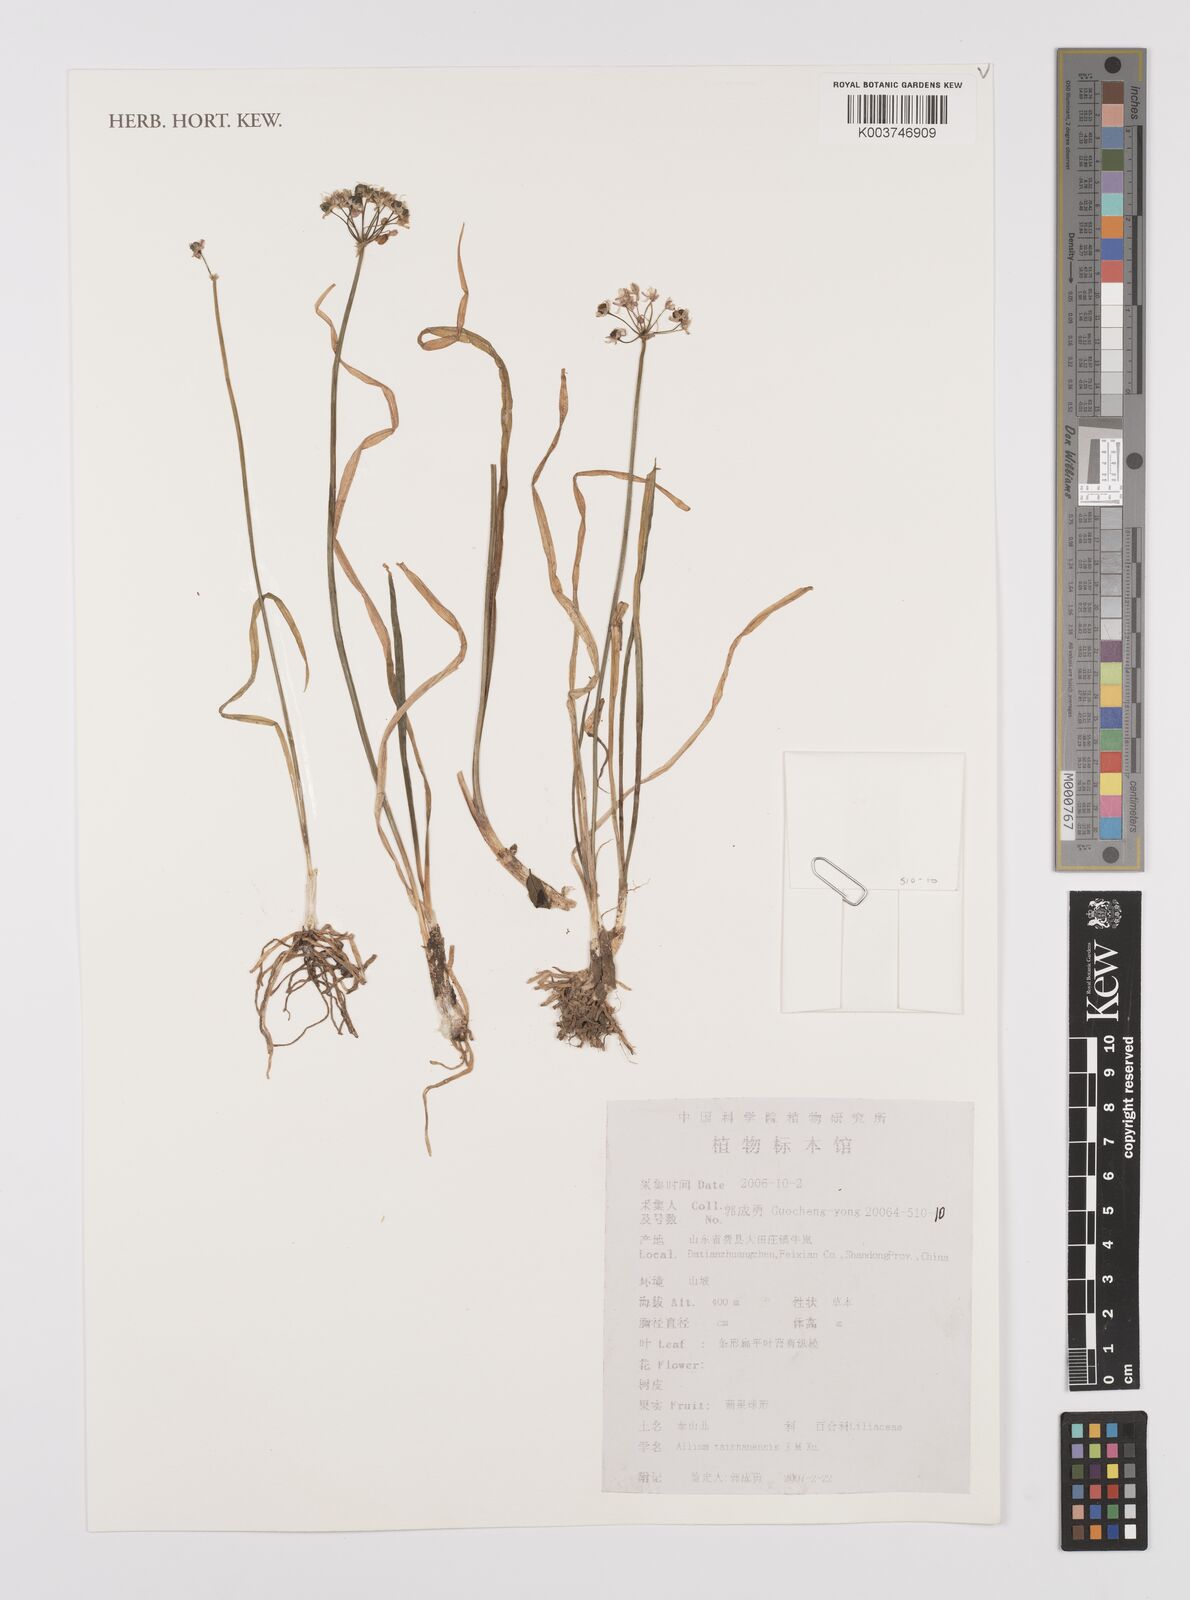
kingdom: Plantae
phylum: Tracheophyta
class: Liliopsida
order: Asparagales
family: Amaryllidaceae
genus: Allium
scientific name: Allium taishanense
